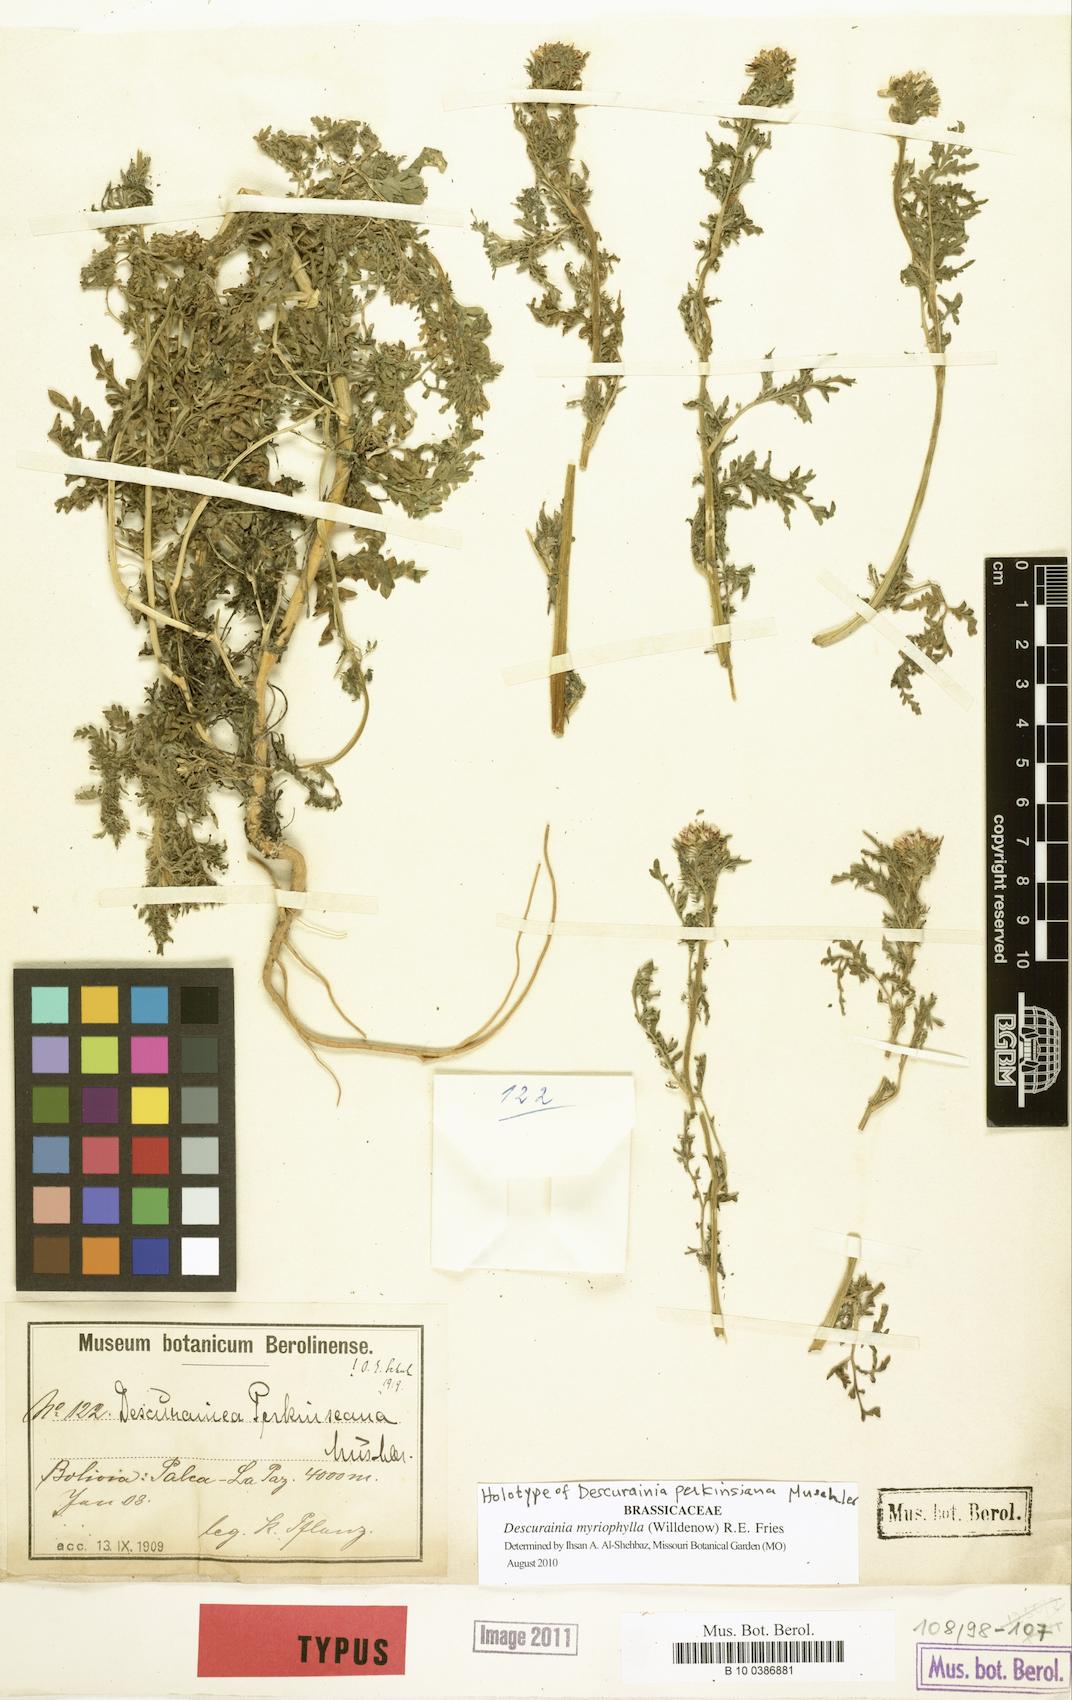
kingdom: Plantae
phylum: Tracheophyta
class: Magnoliopsida
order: Brassicales
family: Brassicaceae
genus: Descurainia
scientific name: Descurainia myriophylla
